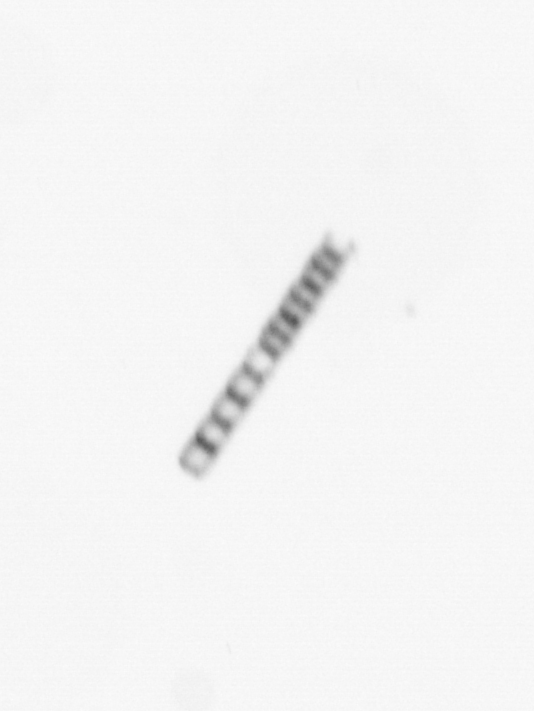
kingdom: Chromista
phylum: Ochrophyta
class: Bacillariophyceae
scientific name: Bacillariophyceae
